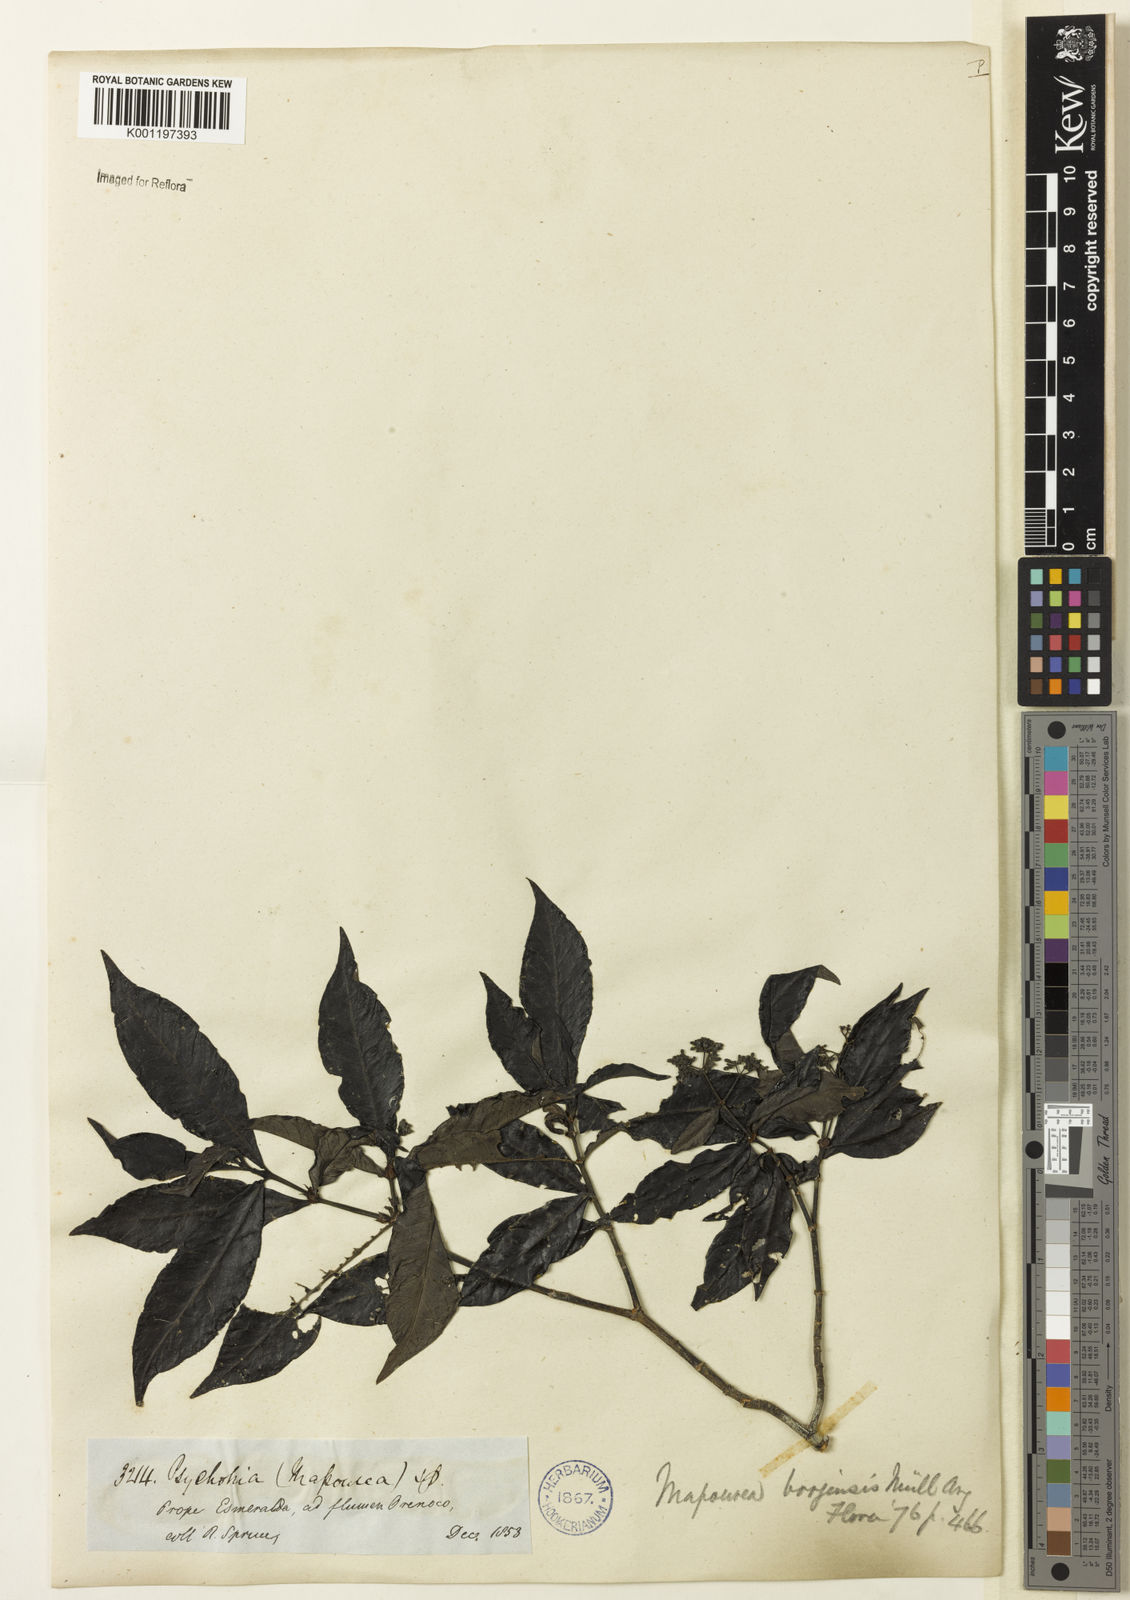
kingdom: Plantae
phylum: Tracheophyta
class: Magnoliopsida
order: Gentianales
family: Rubiaceae
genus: Psychotria
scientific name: Psychotria borjensis
